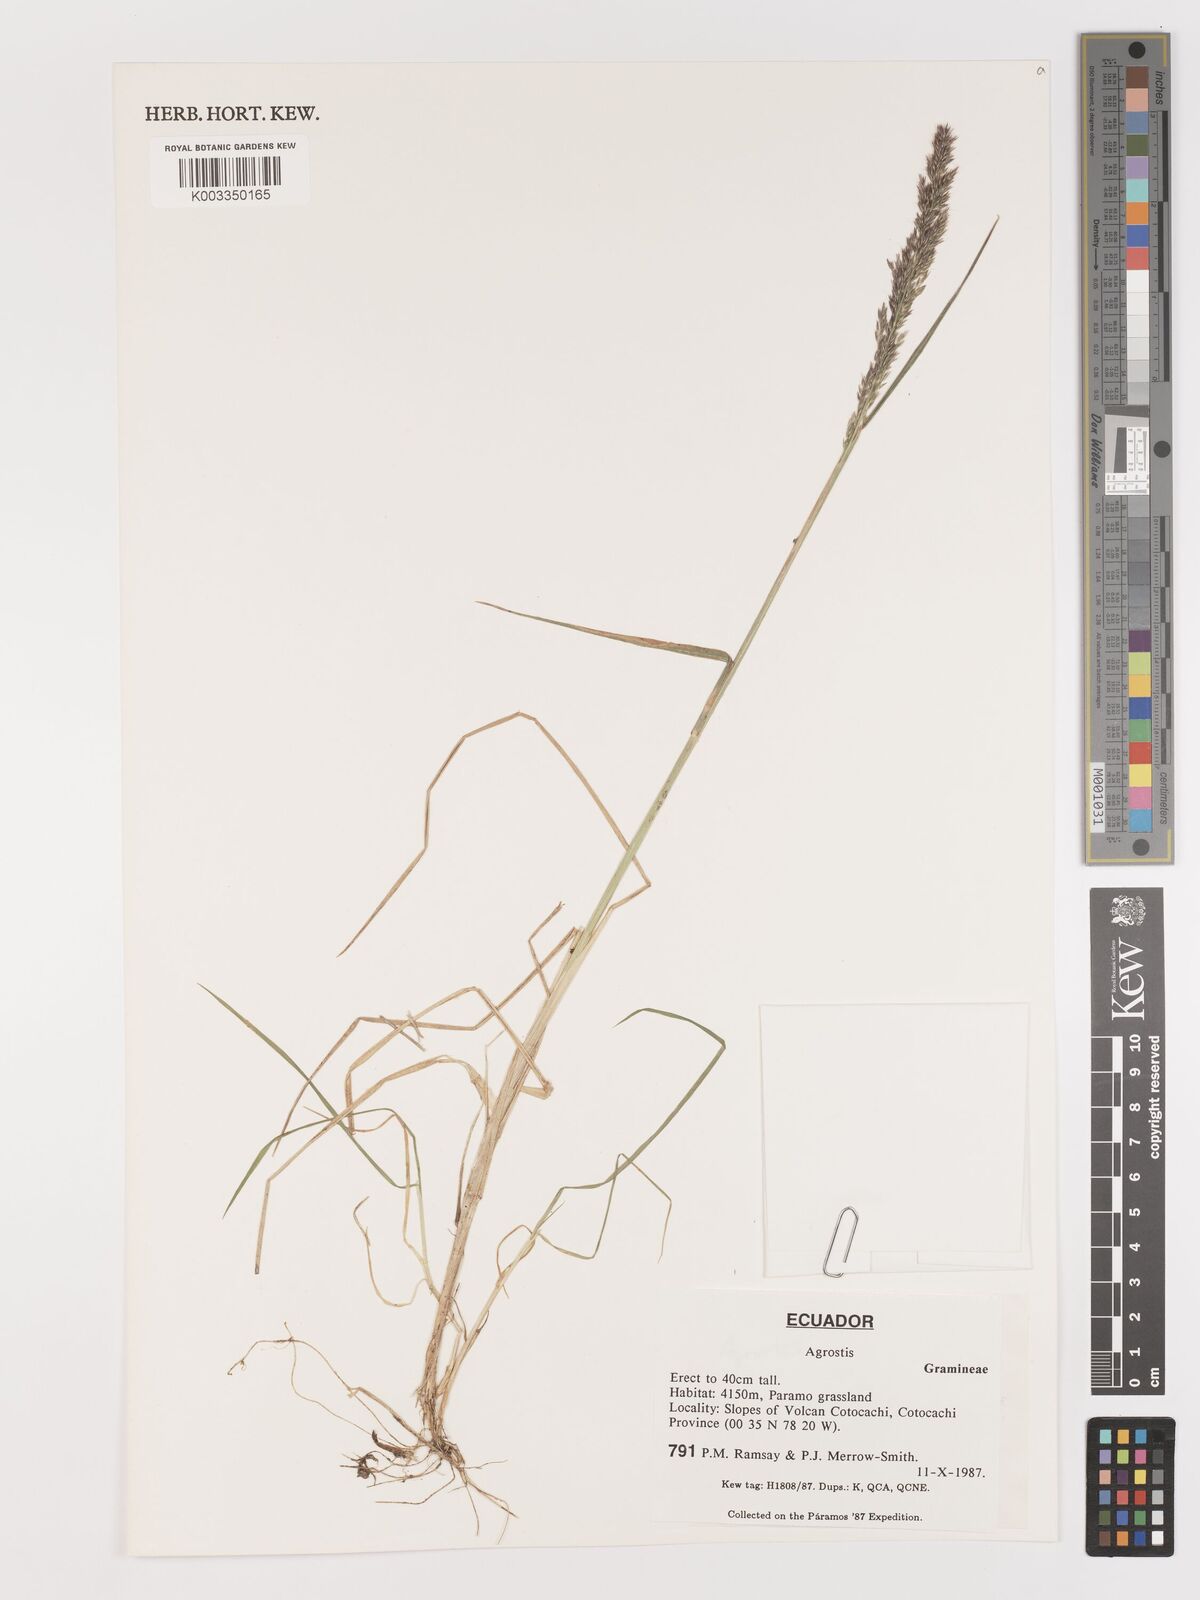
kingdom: Plantae
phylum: Tracheophyta
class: Liliopsida
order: Poales
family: Poaceae
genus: Agrostis
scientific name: Agrostis
